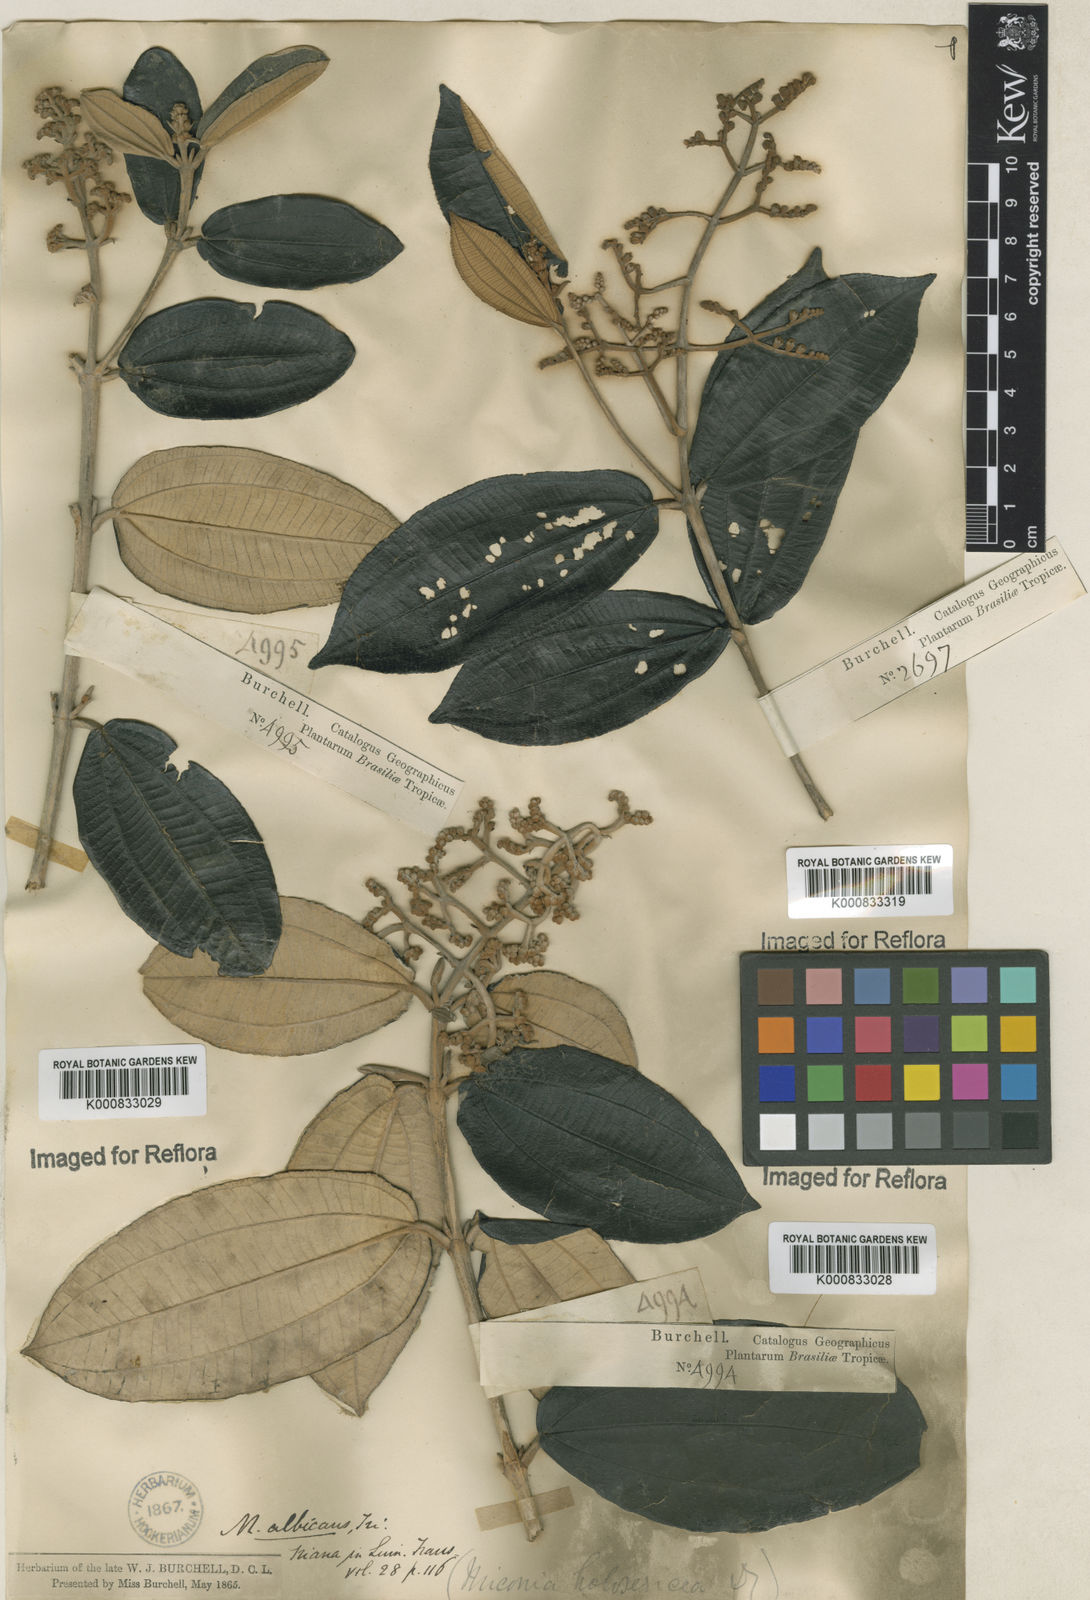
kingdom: Plantae
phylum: Tracheophyta
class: Magnoliopsida
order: Myrtales
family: Melastomataceae
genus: Miconia
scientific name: Miconia albicans
